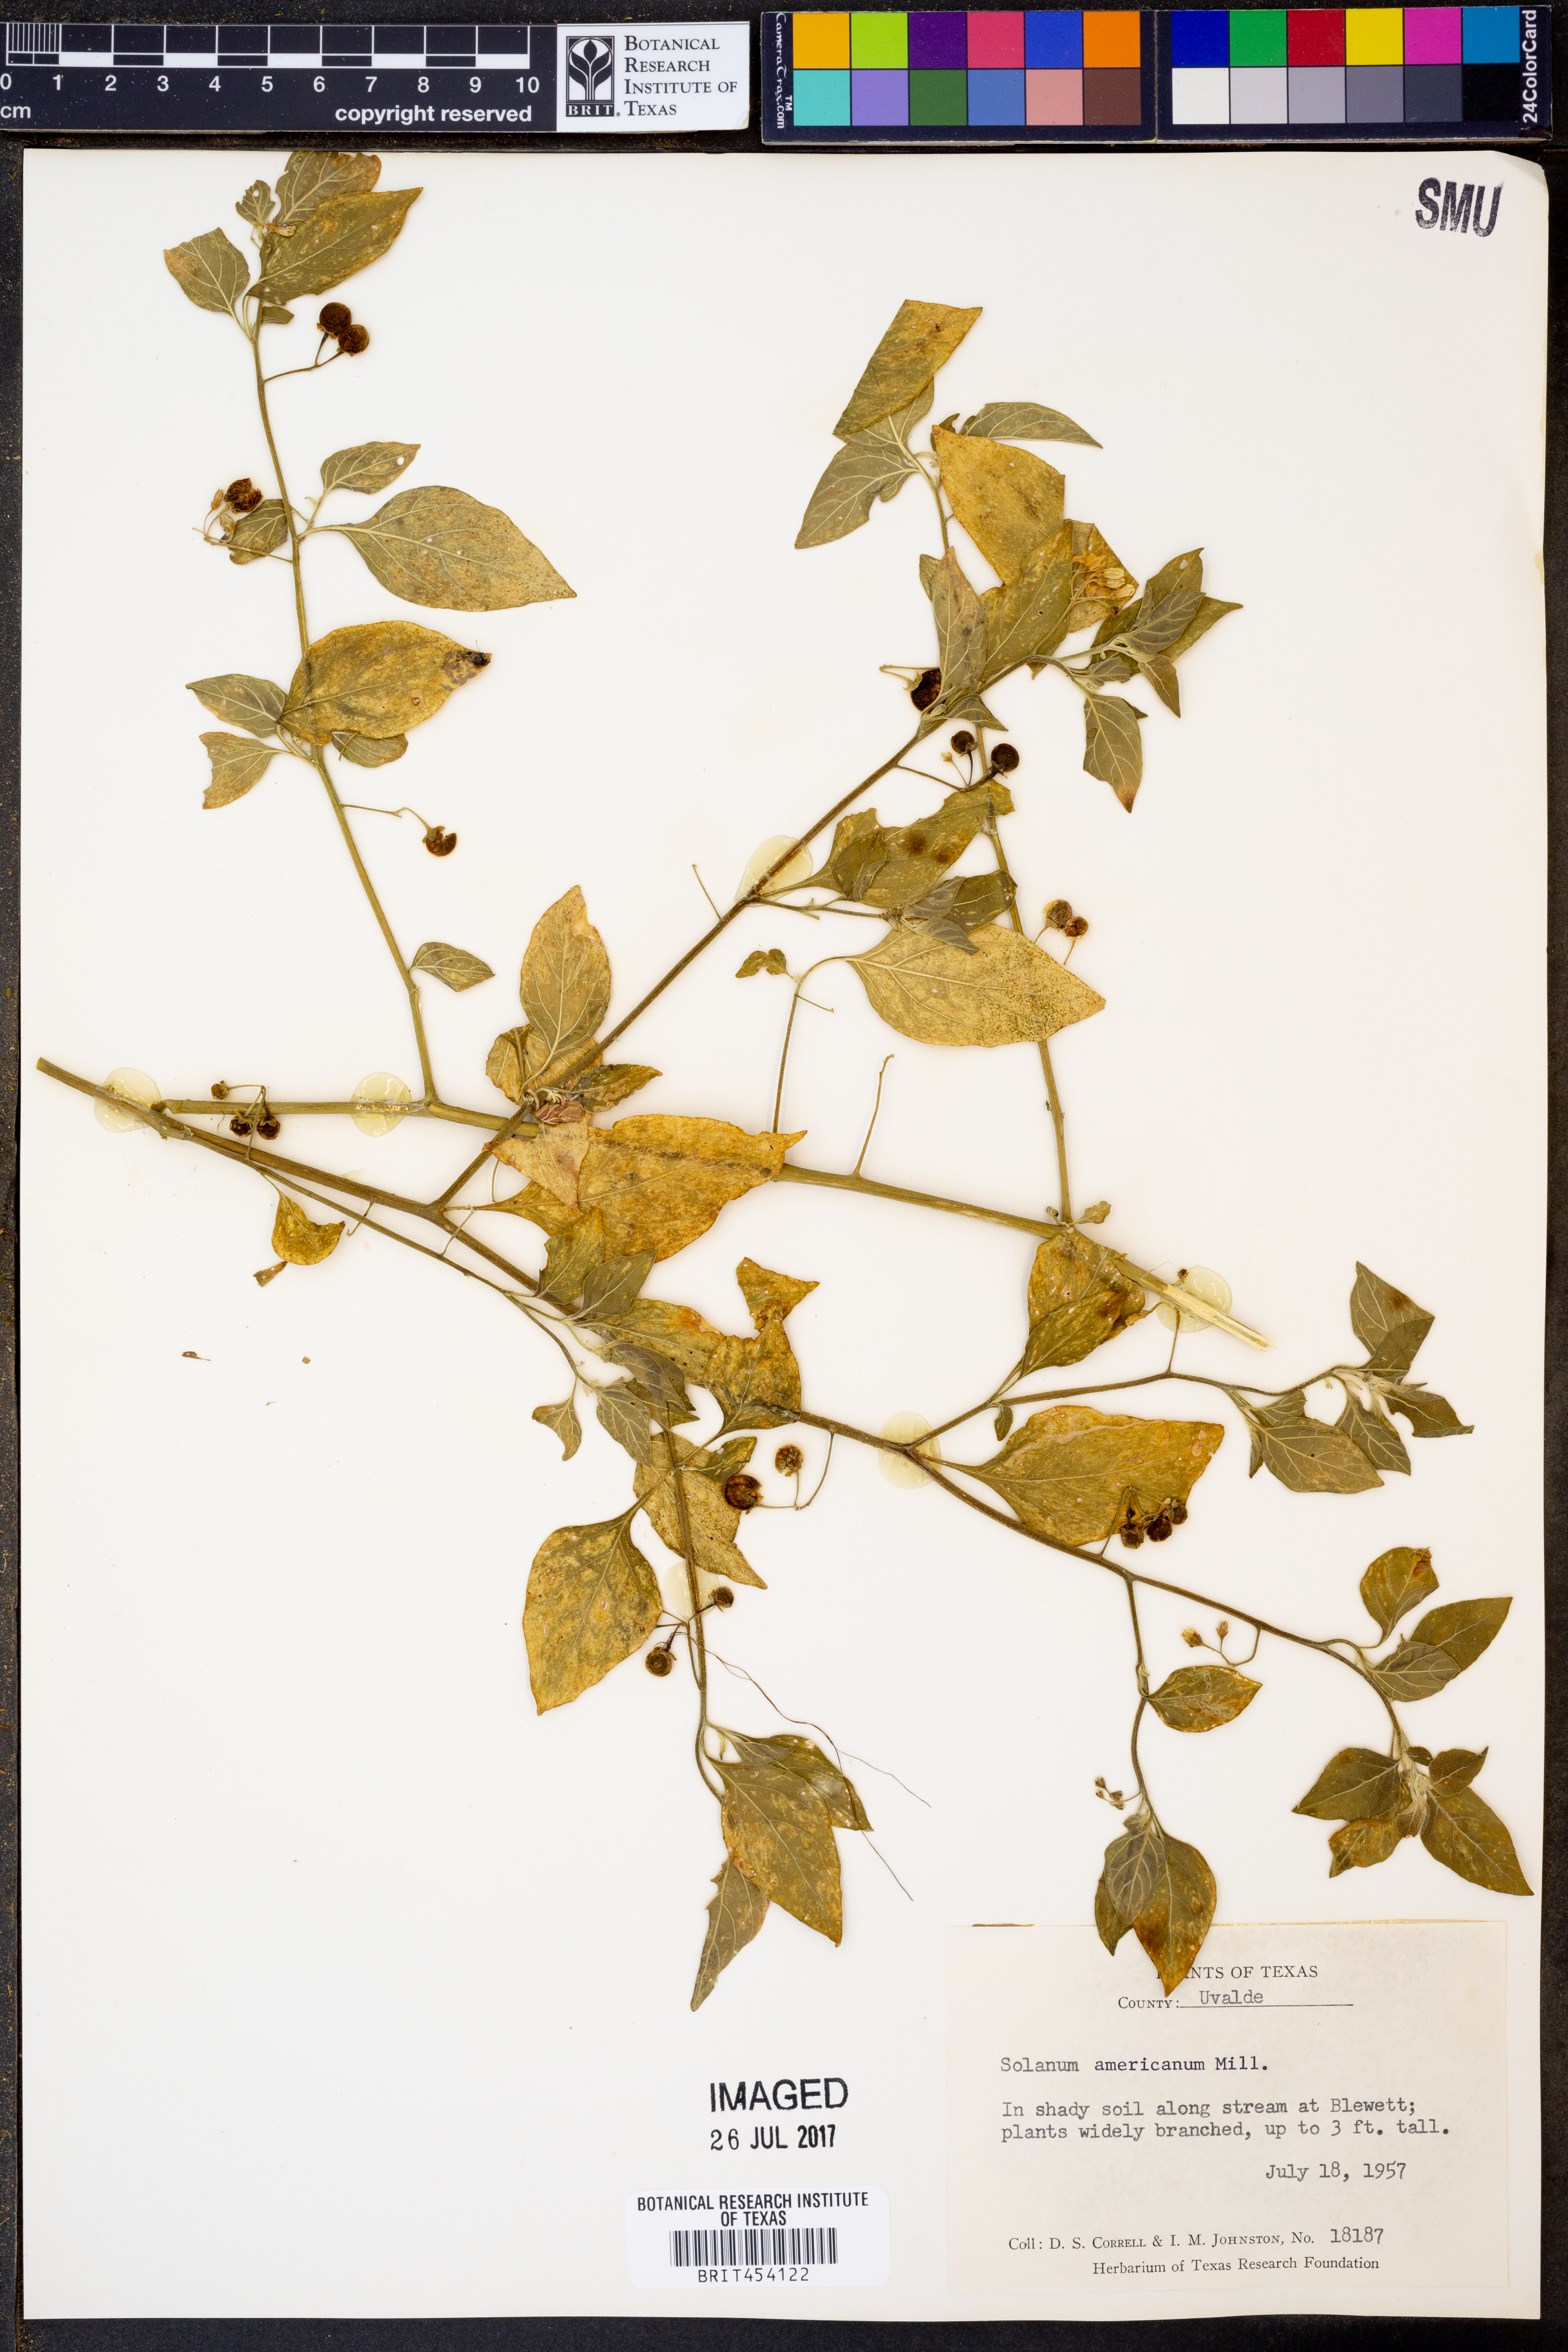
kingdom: Plantae
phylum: Tracheophyta
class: Magnoliopsida
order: Solanales
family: Solanaceae
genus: Solanum
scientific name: Solanum americanum
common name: American black nightshade
